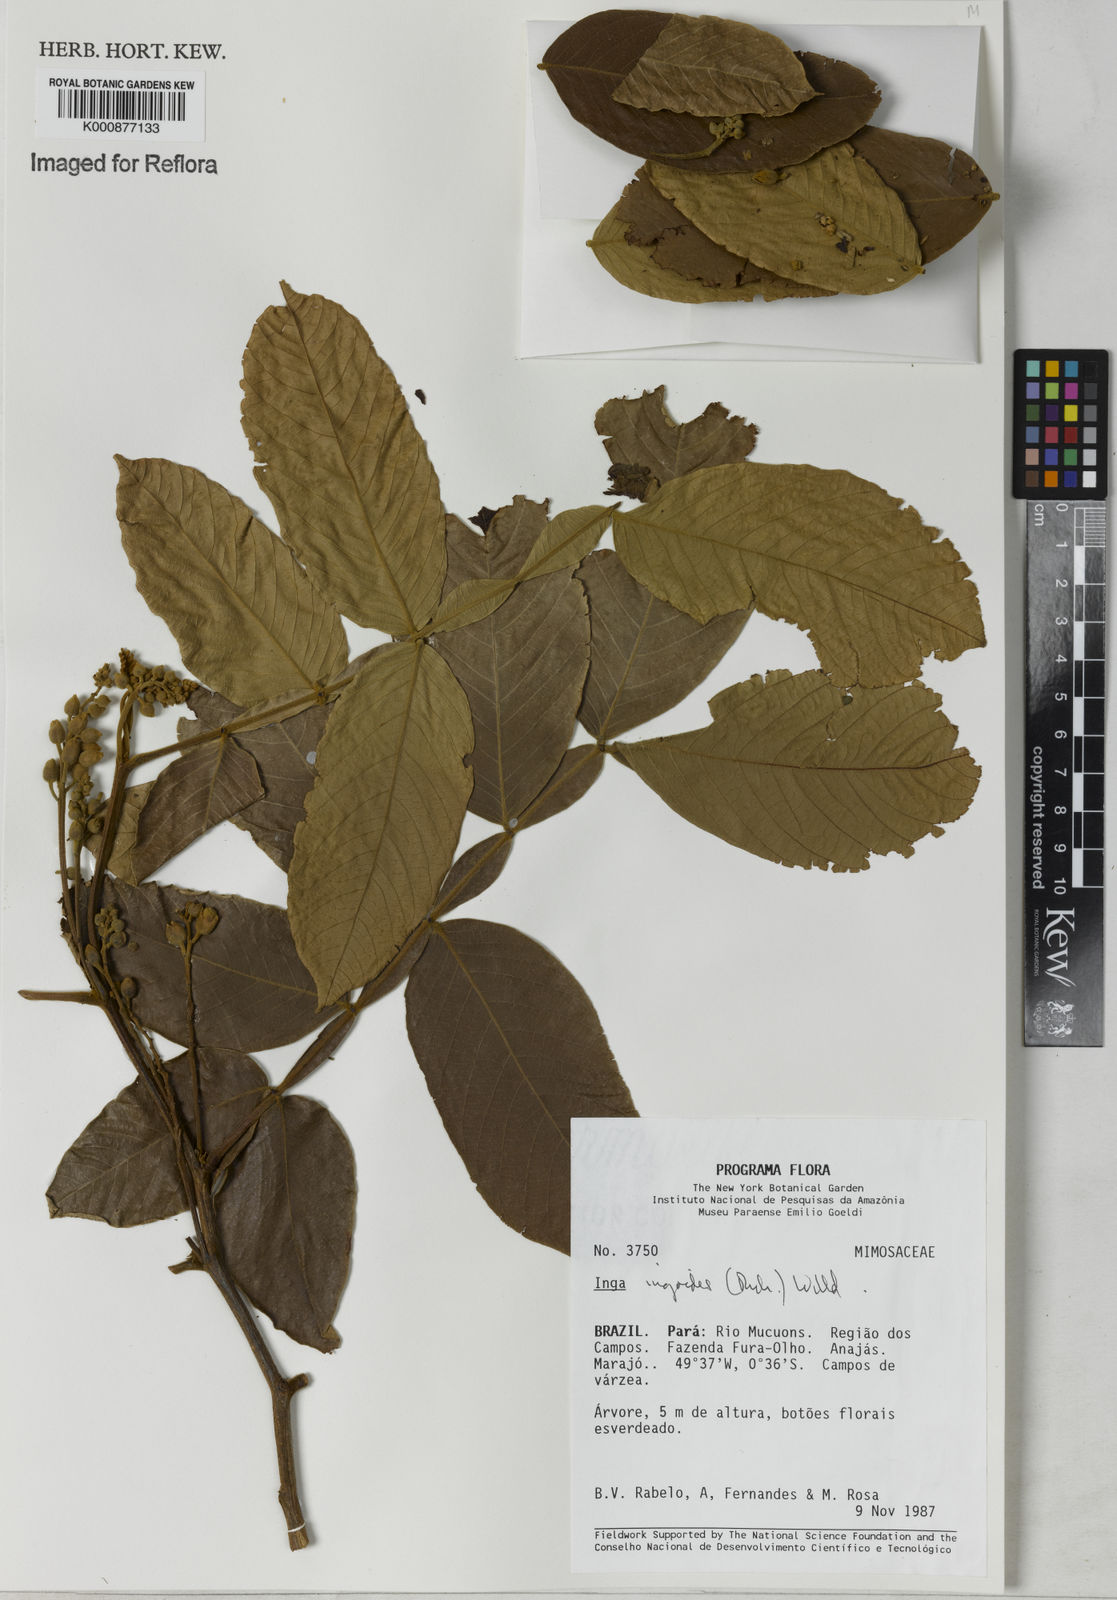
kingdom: Plantae
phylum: Tracheophyta
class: Magnoliopsida
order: Fabales
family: Fabaceae
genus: Inga
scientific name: Inga ingoides
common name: Spanish ash
